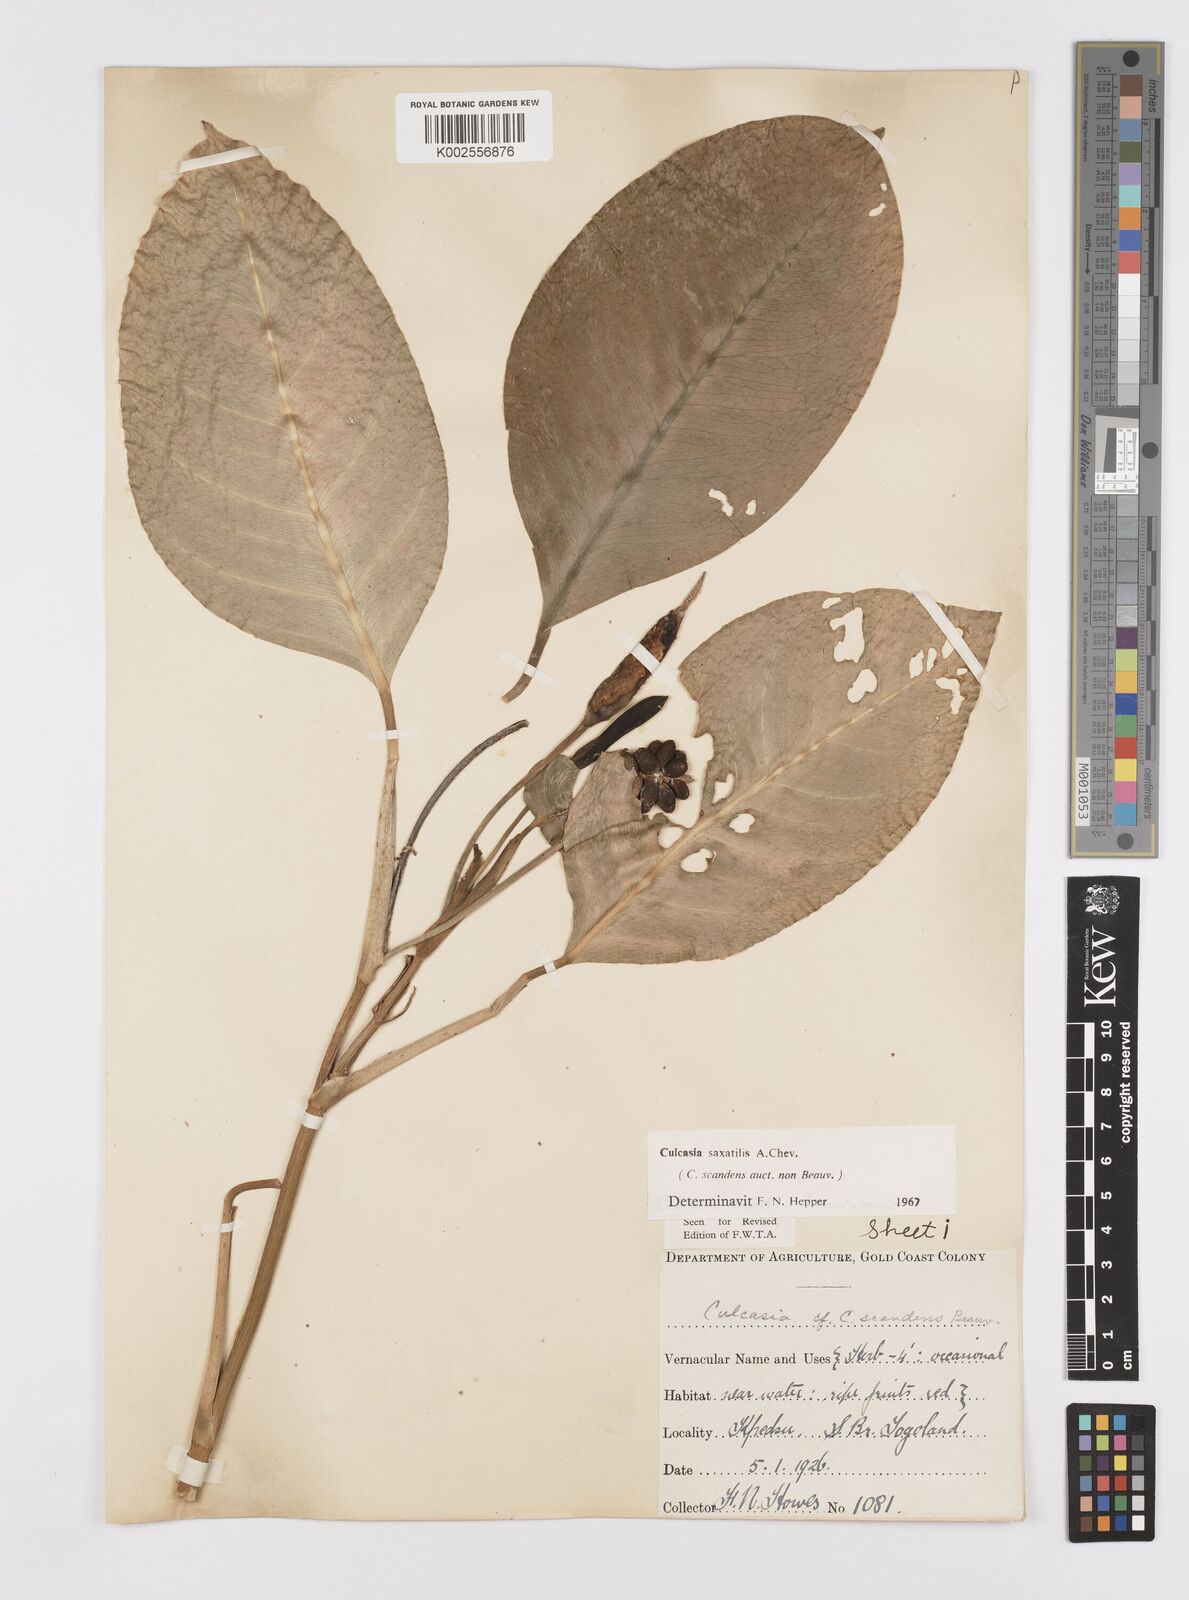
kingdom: Plantae
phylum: Tracheophyta
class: Liliopsida
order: Alismatales
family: Araceae
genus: Culcasia
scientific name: Culcasia scandens
